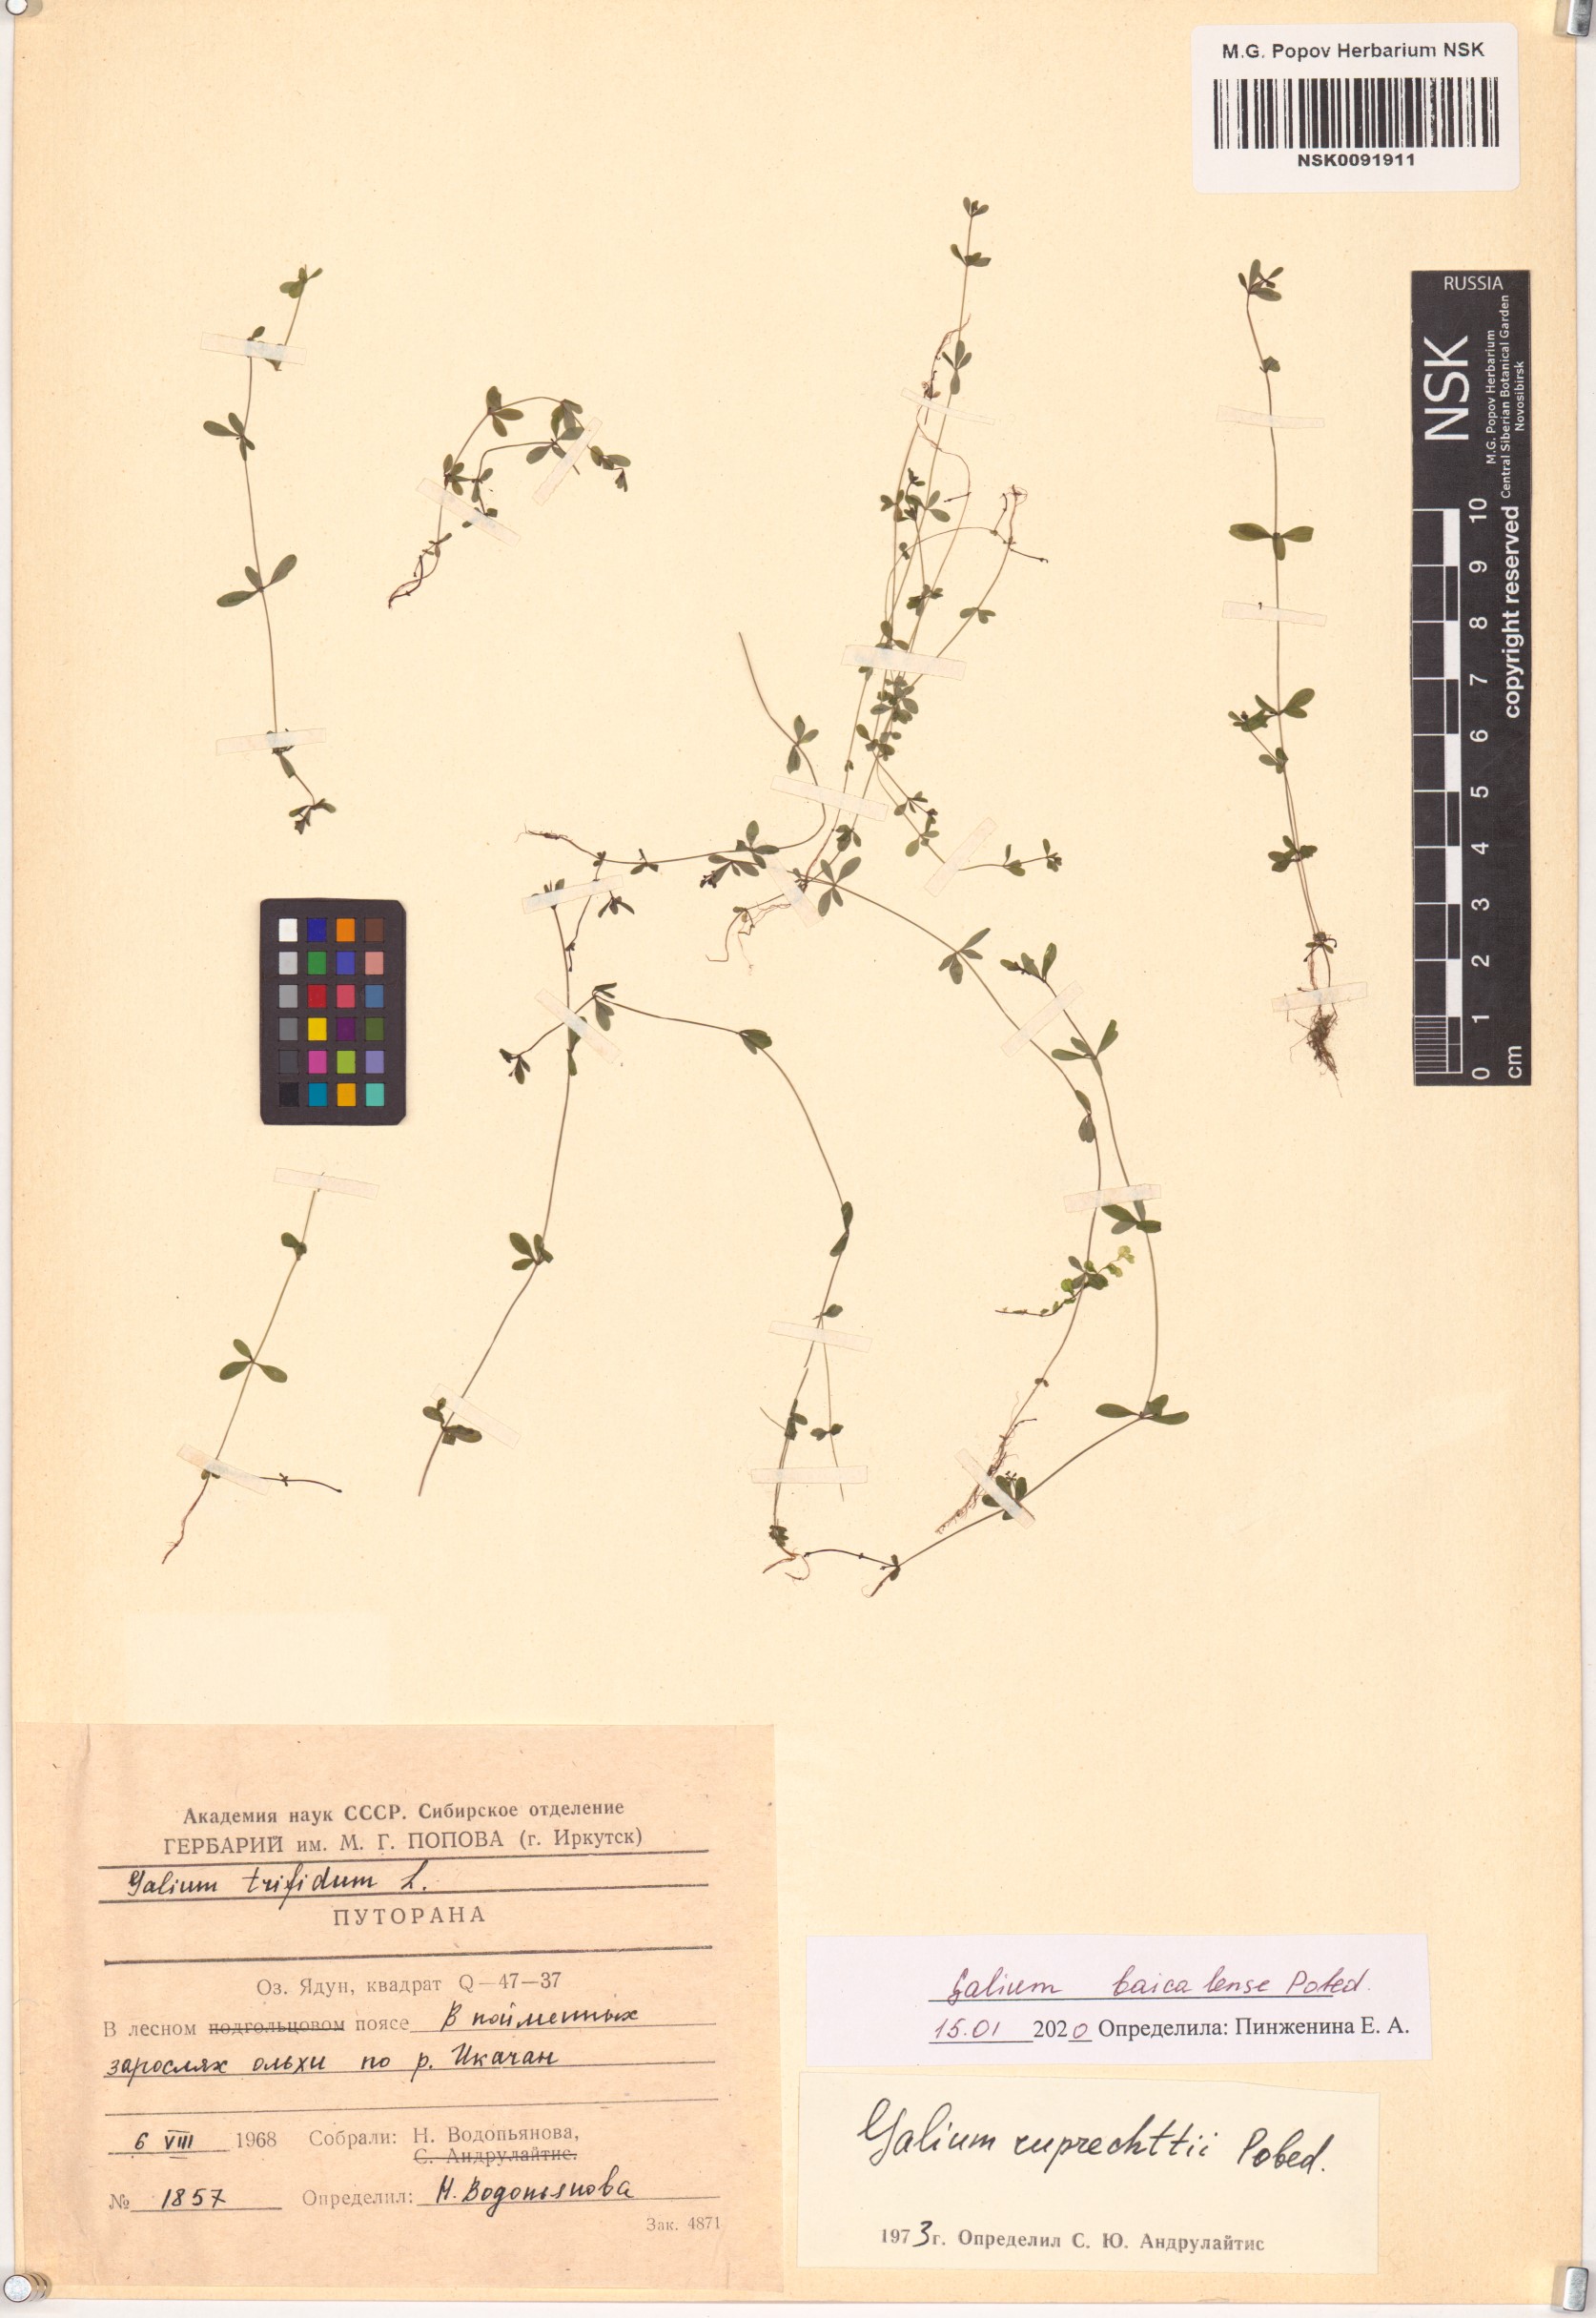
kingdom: Plantae
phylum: Tracheophyta
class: Magnoliopsida
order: Gentianales
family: Rubiaceae
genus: Galium
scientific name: Galium trifidum
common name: Small bedstraw
